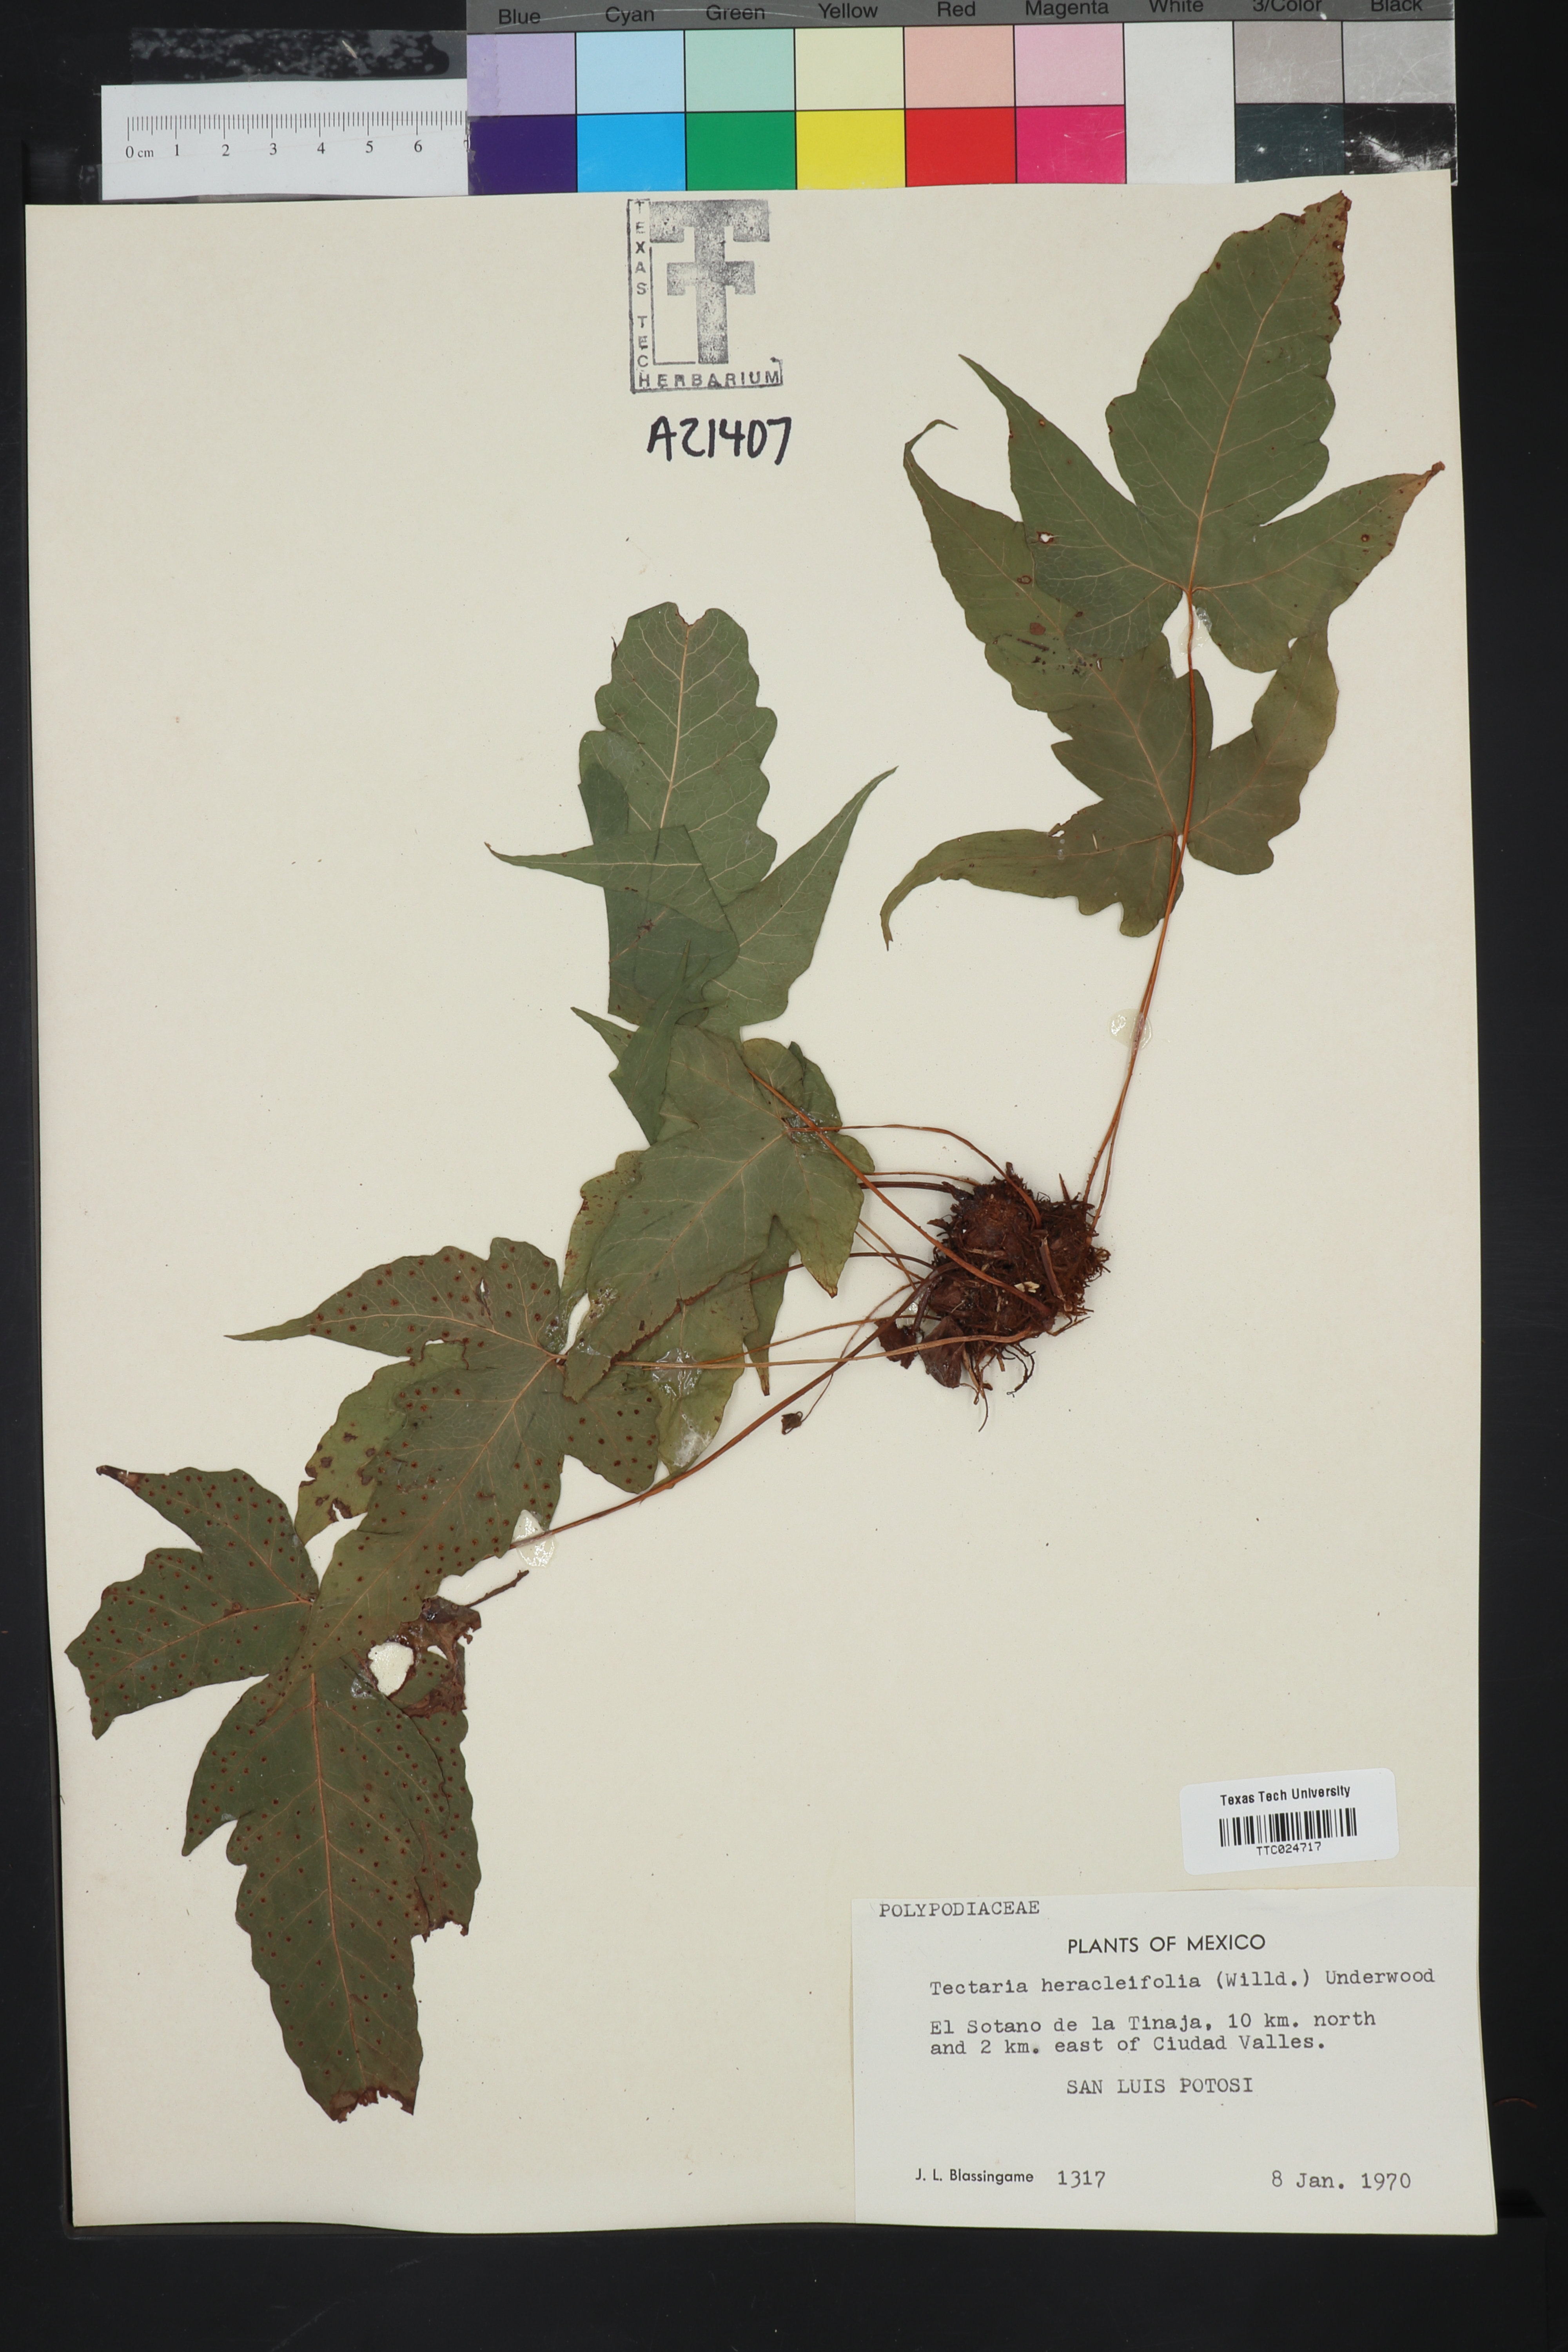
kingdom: Plantae
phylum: Tracheophyta
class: Polypodiopsida
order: Polypodiales
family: Tectariaceae
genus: Tectaria
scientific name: Tectaria heracleifolia
